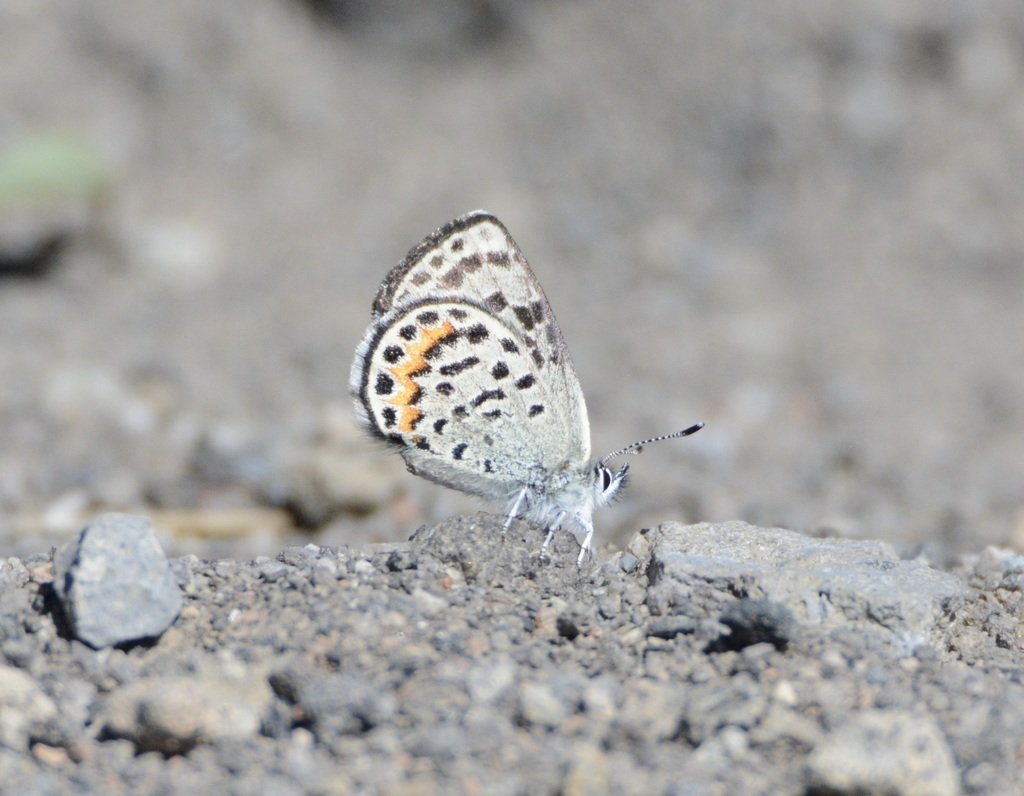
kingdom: Animalia
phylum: Arthropoda
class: Insecta
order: Lepidoptera
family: Lycaenidae
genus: Plebejus
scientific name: Plebejus acmon
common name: Acmon Blue
